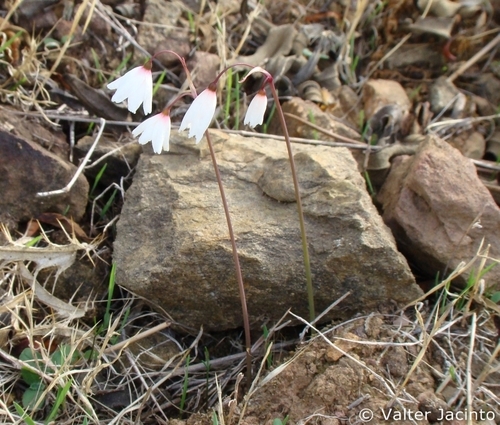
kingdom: Plantae
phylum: Tracheophyta
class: Liliopsida
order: Asparagales
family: Amaryllidaceae
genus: Acis
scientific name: Acis autumnalis
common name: Autumn snowflake
